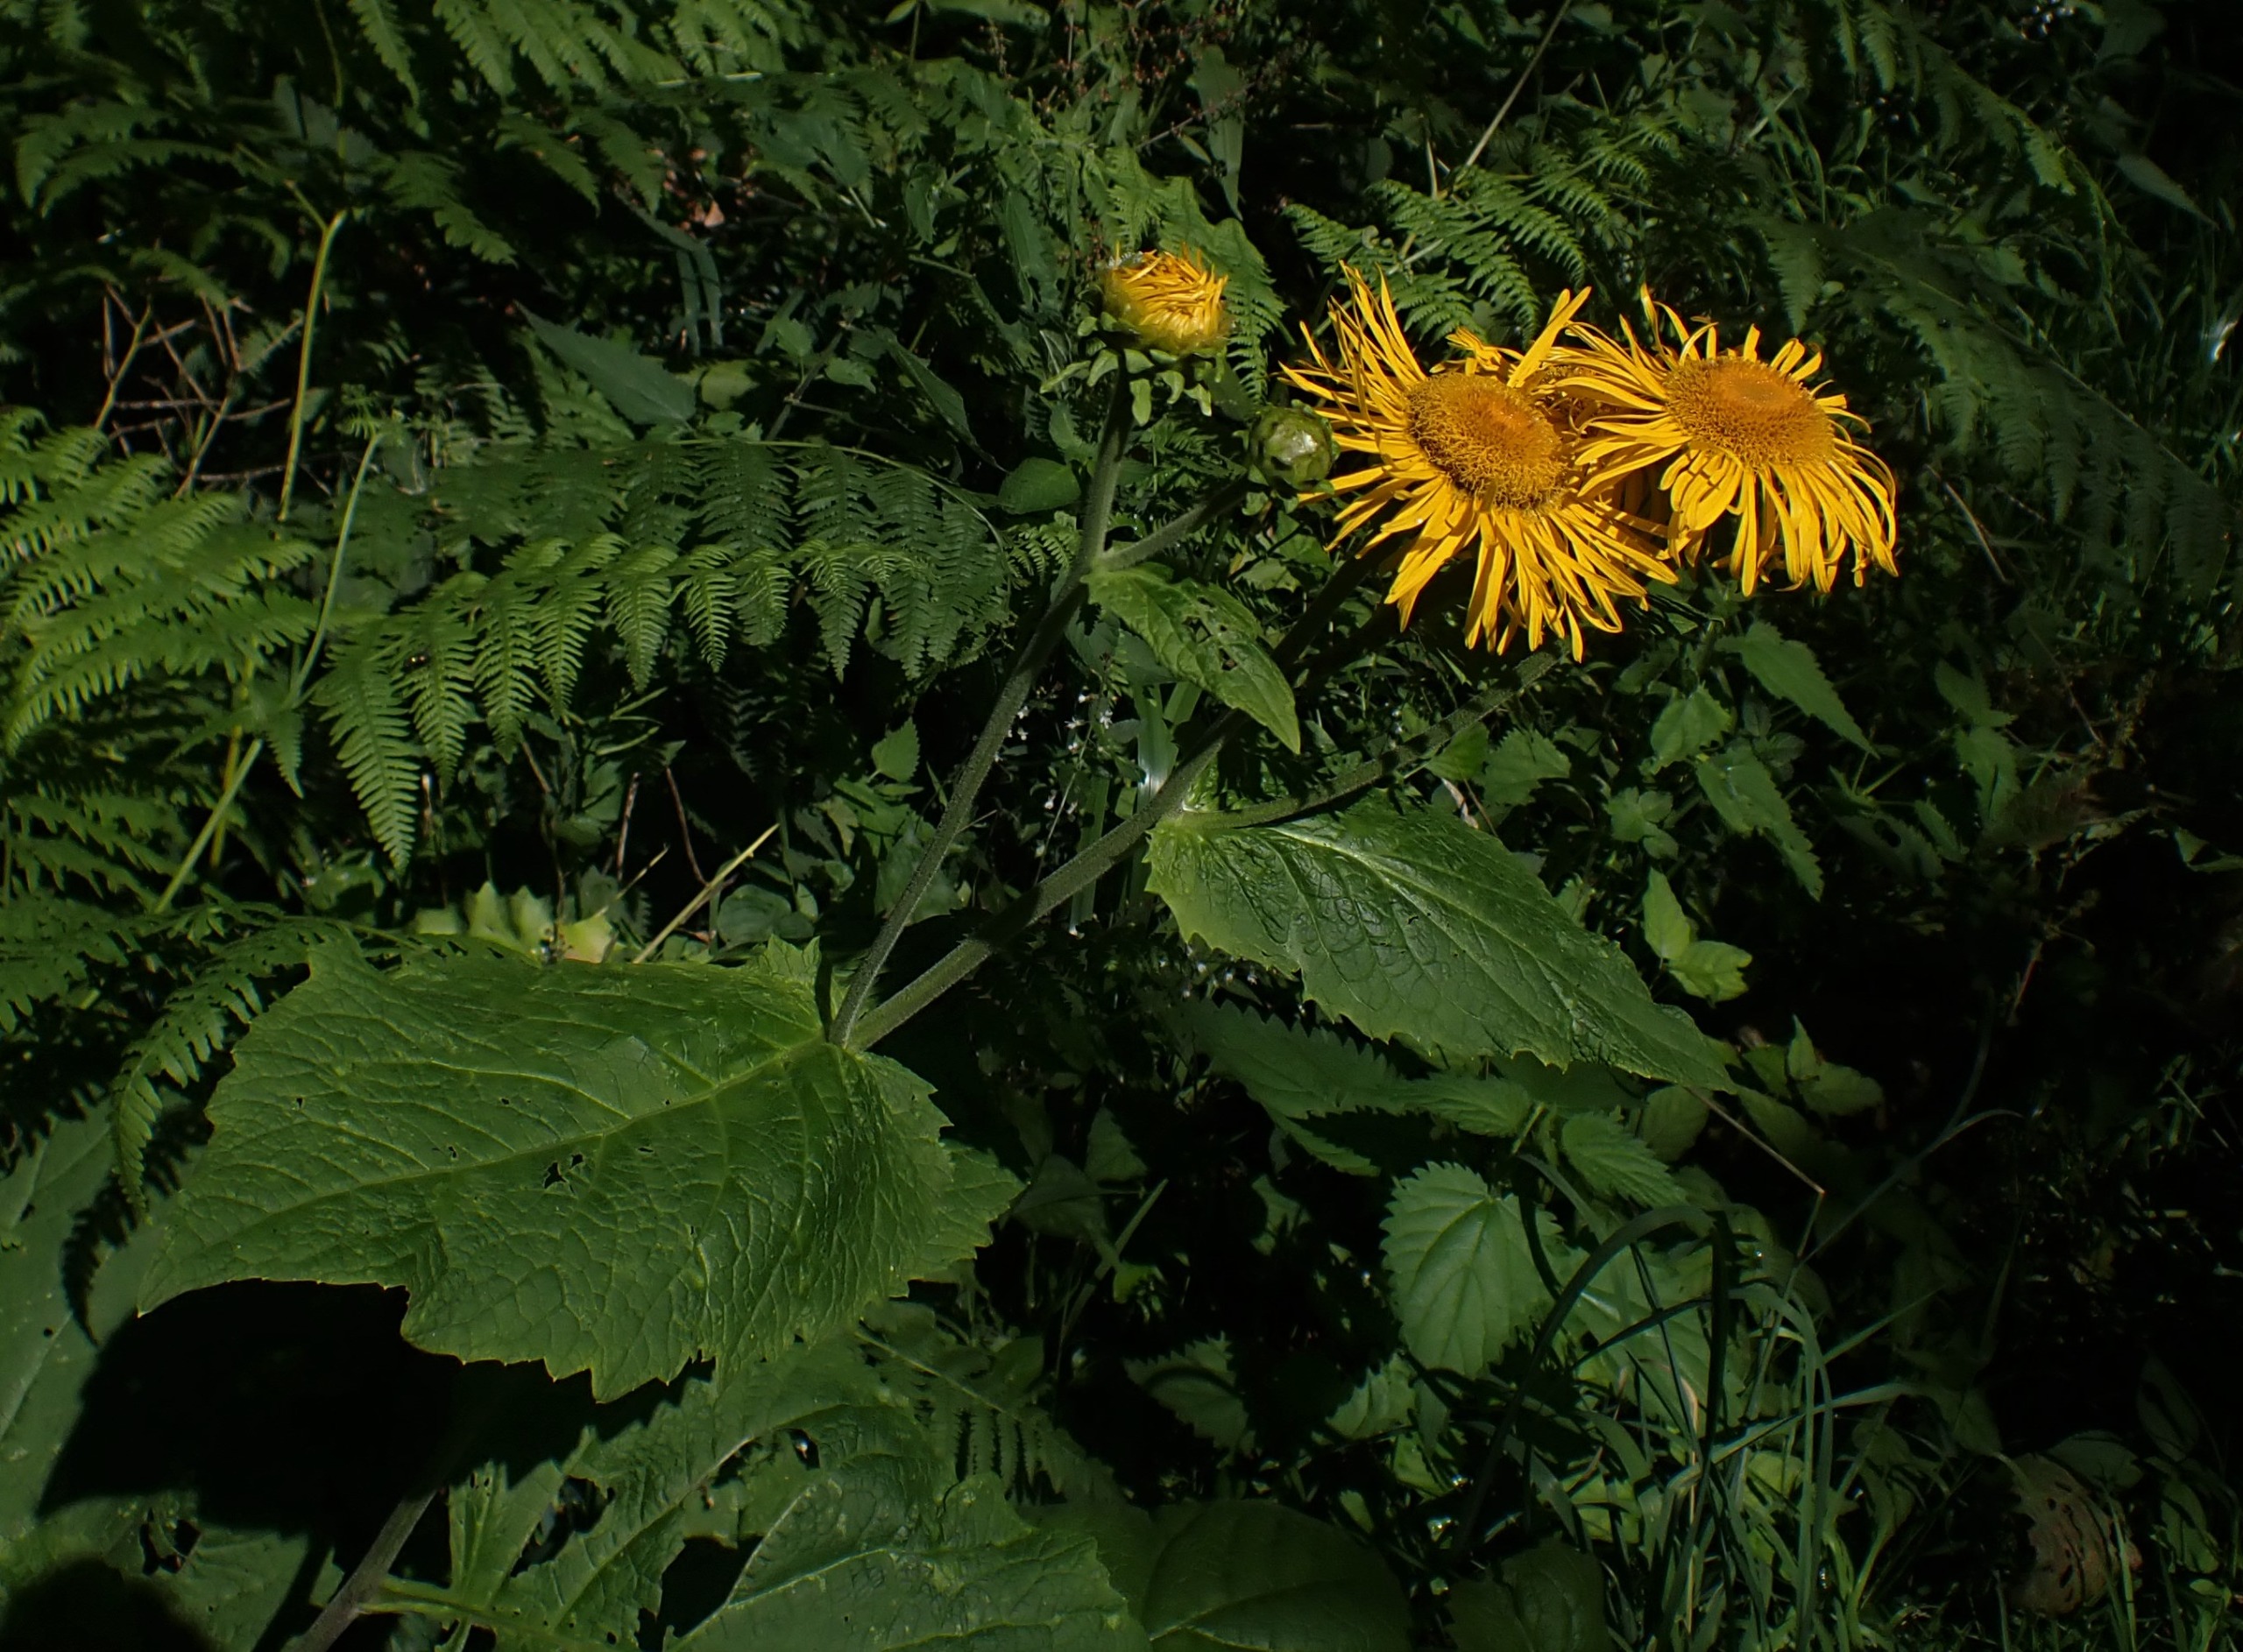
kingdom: Plantae
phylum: Tracheophyta
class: Magnoliopsida
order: Asterales
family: Asteraceae
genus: Telekia
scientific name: Telekia speciosa
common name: Tusindstråle
